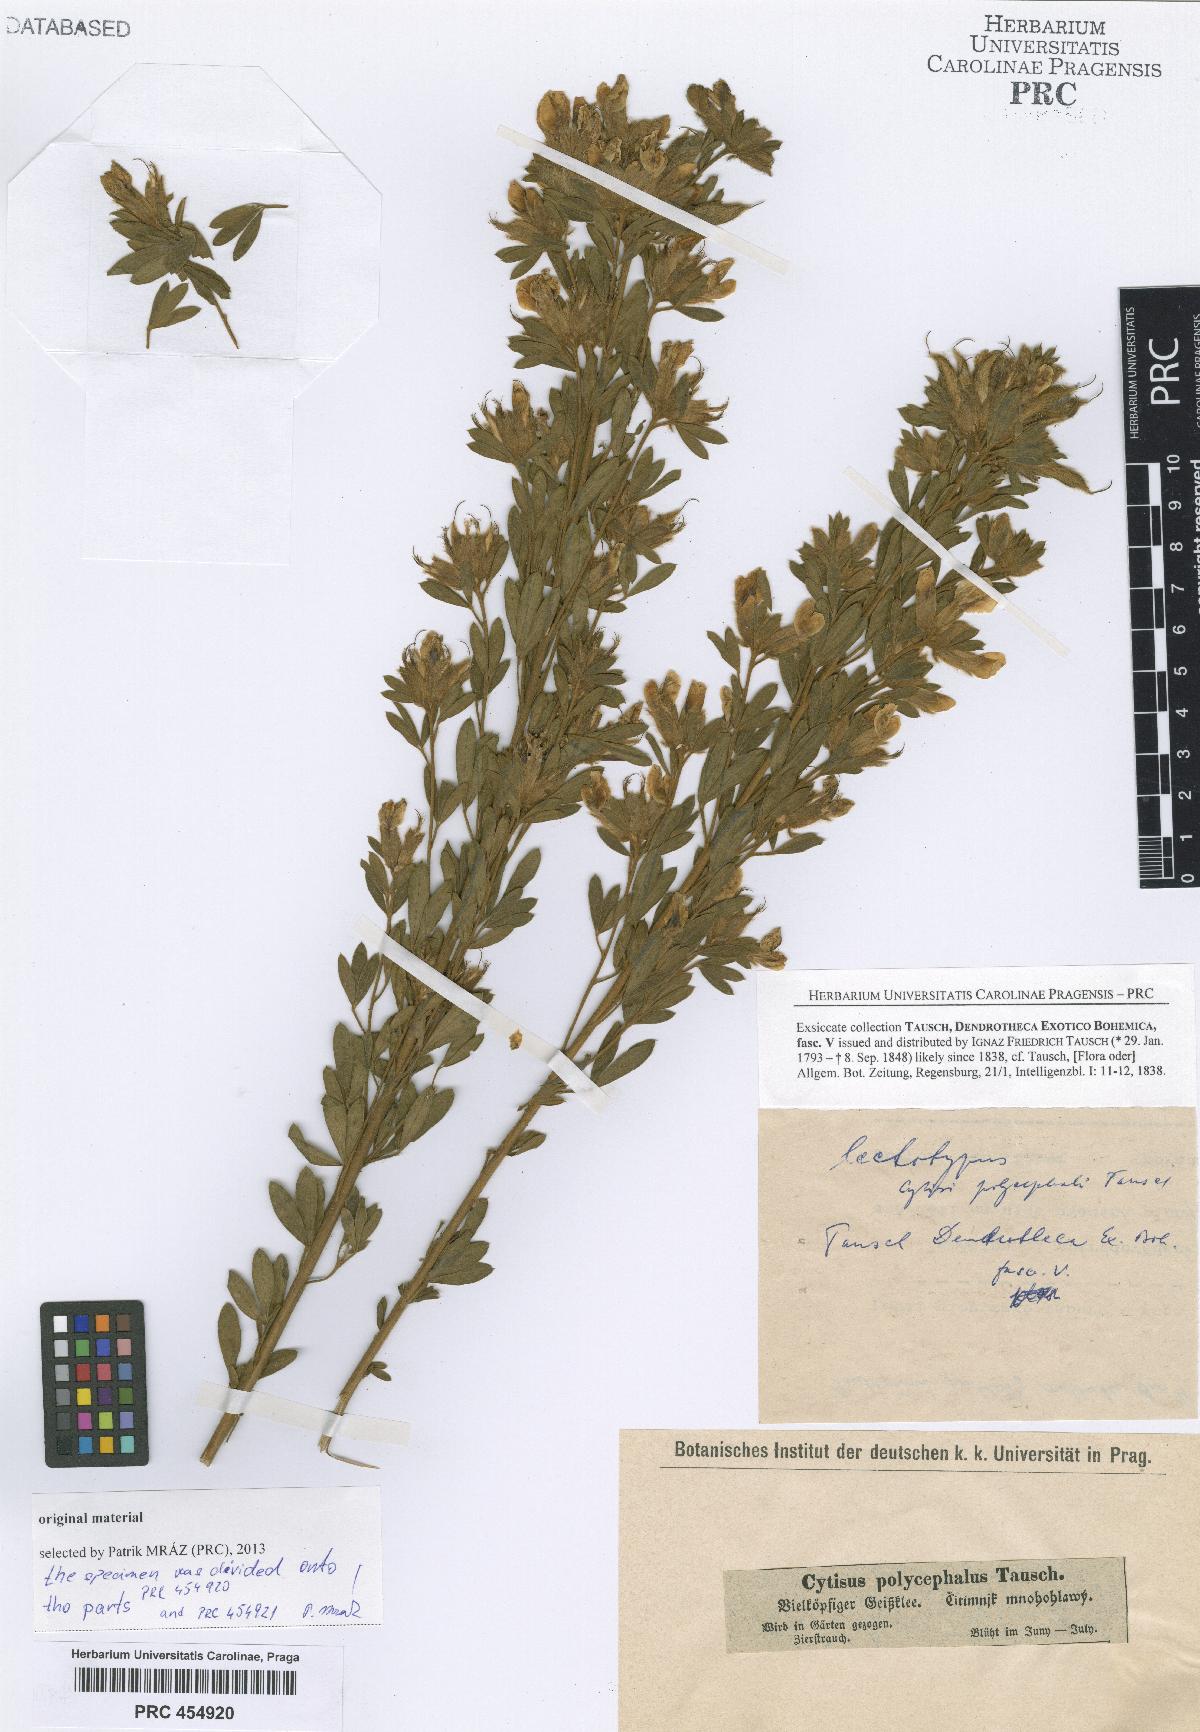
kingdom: Plantae
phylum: Tracheophyta
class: Magnoliopsida
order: Fabales
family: Fabaceae
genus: Chamaecytisus
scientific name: Chamaecytisus albus
